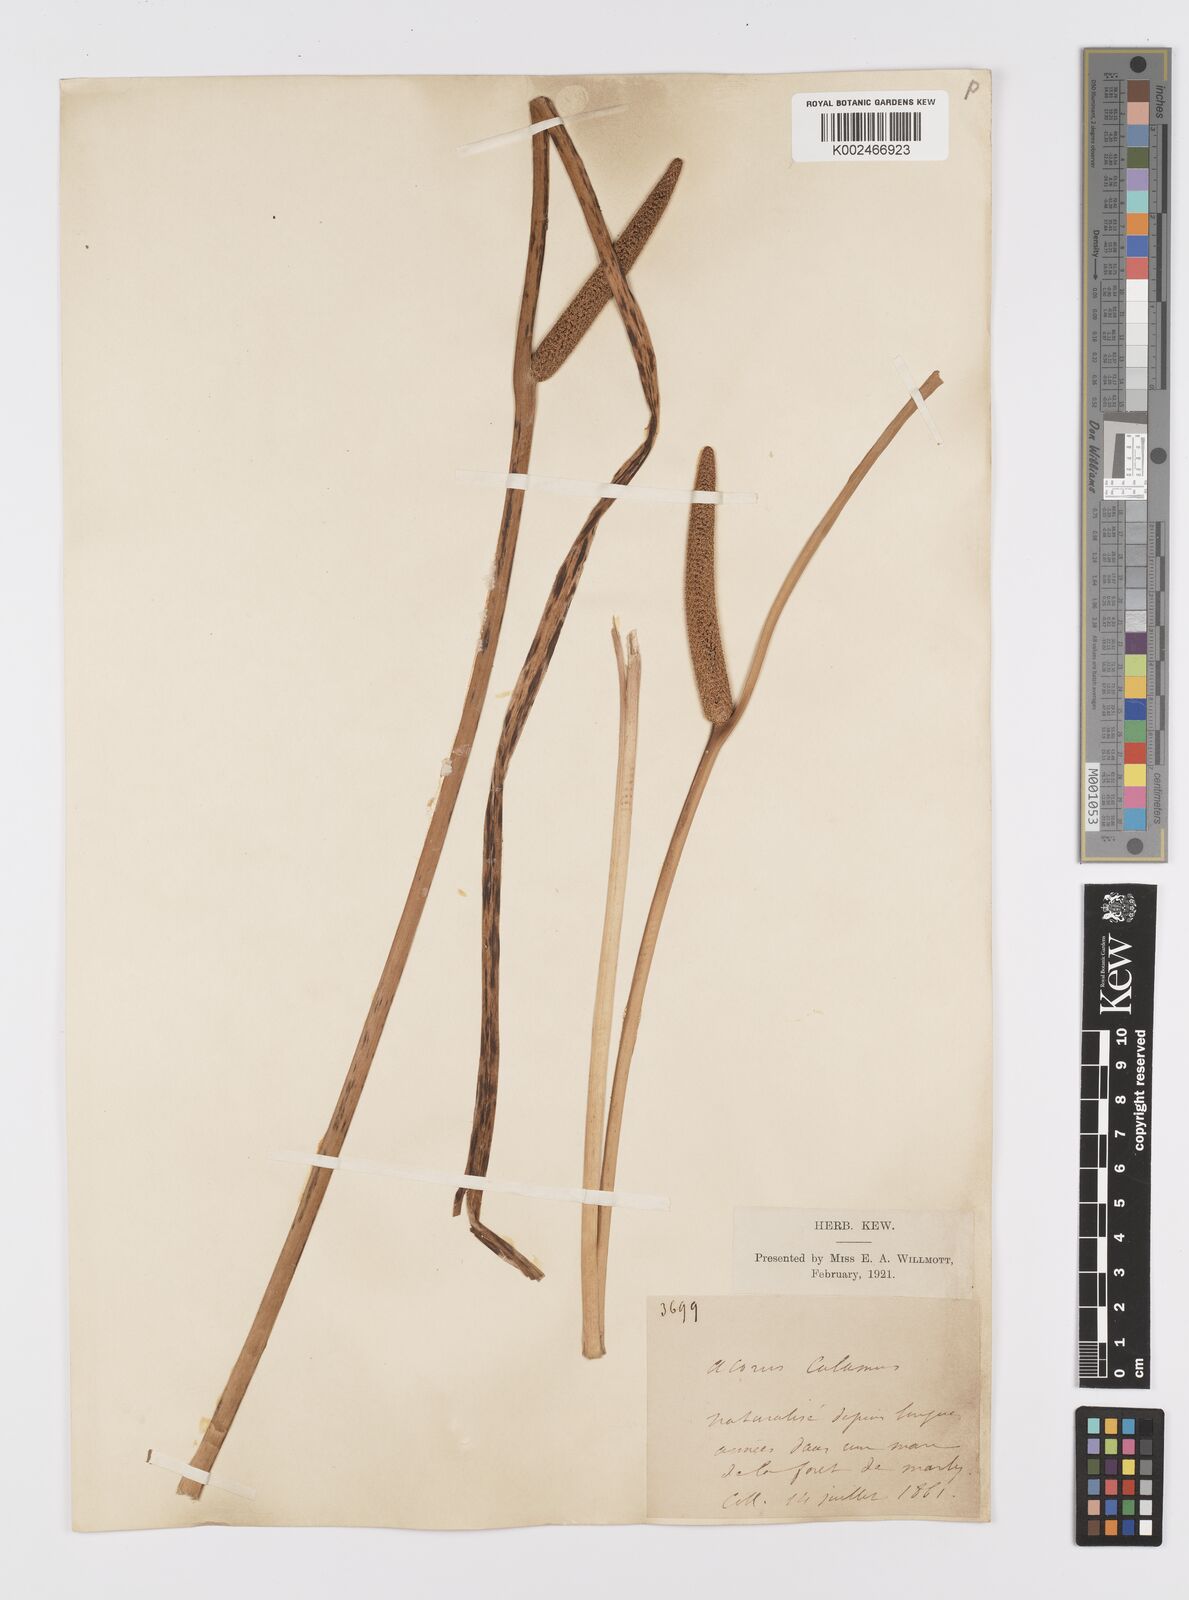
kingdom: Plantae
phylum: Tracheophyta
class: Liliopsida
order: Acorales
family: Acoraceae
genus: Acorus
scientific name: Acorus calamus
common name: Sweet-flag
